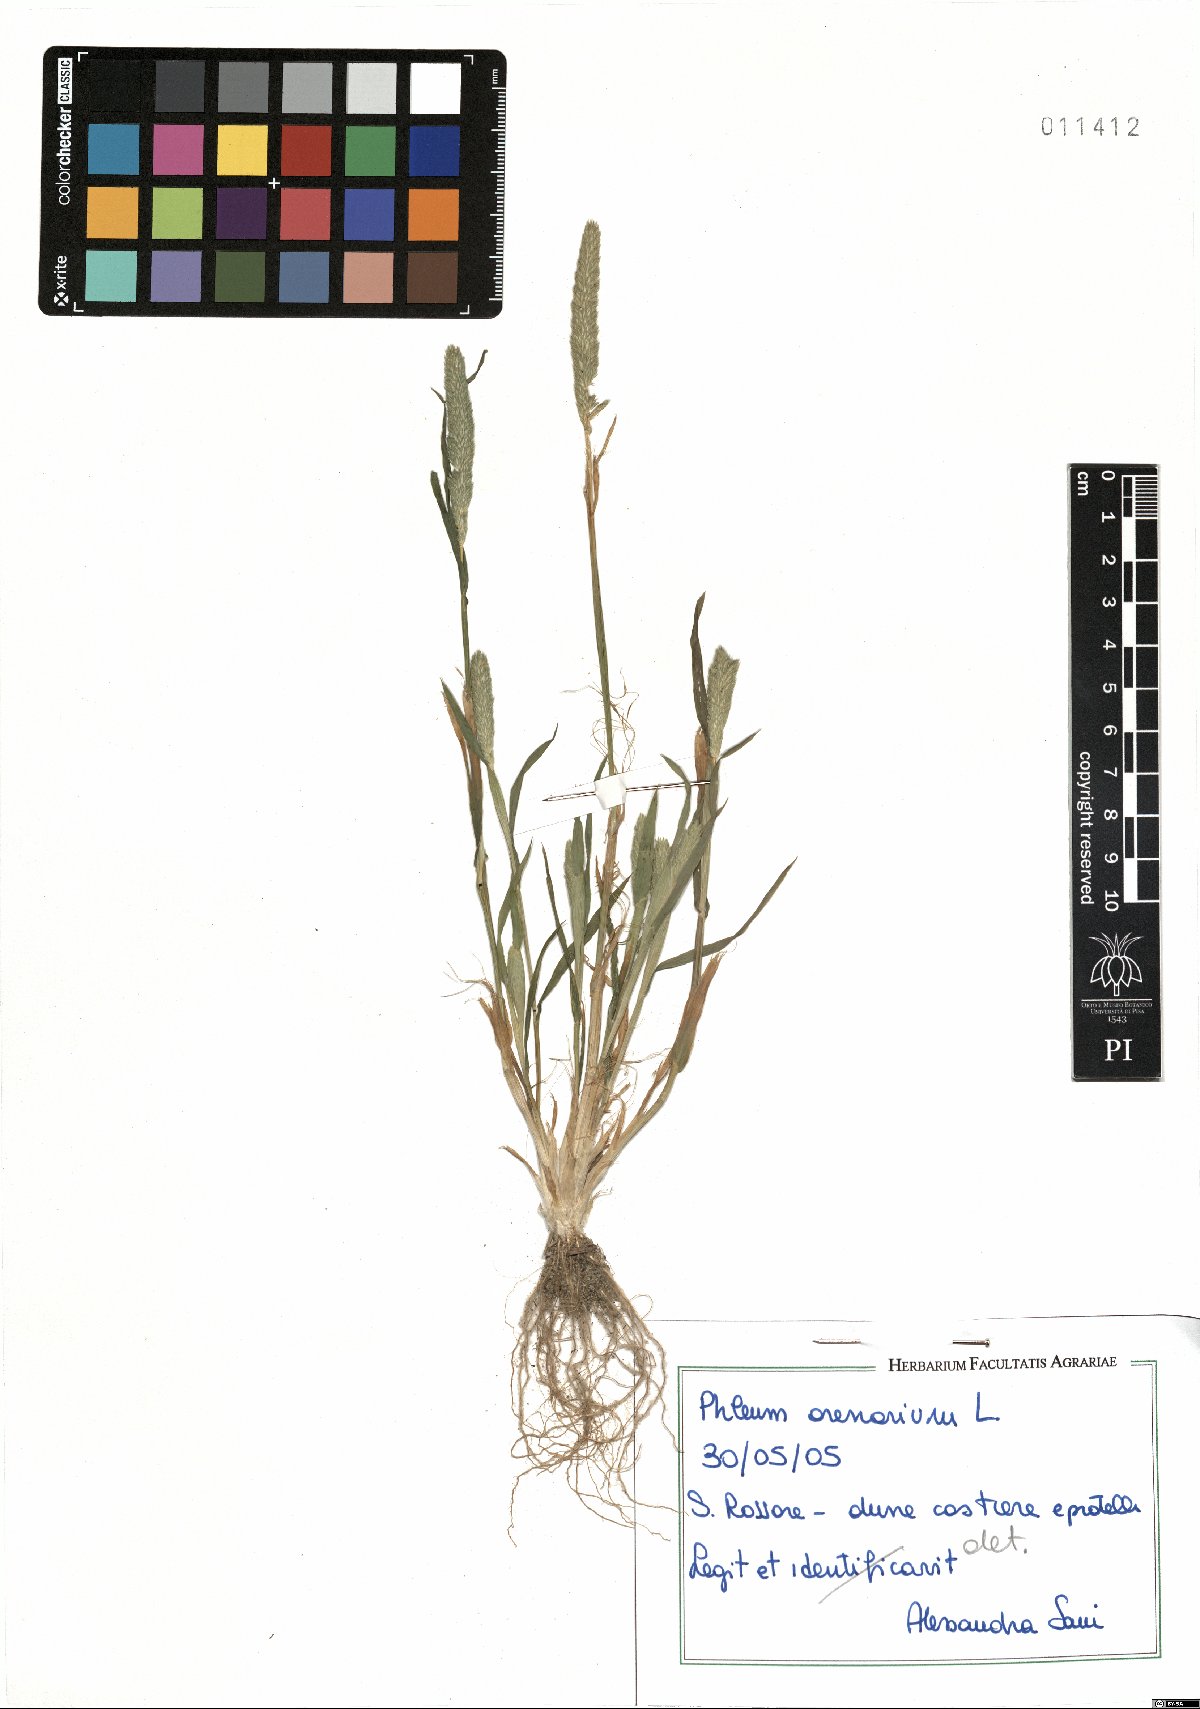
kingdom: Plantae
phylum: Tracheophyta
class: Liliopsida
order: Poales
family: Poaceae
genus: Phleum
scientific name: Phleum arenarium
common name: Sand cat's-tail
